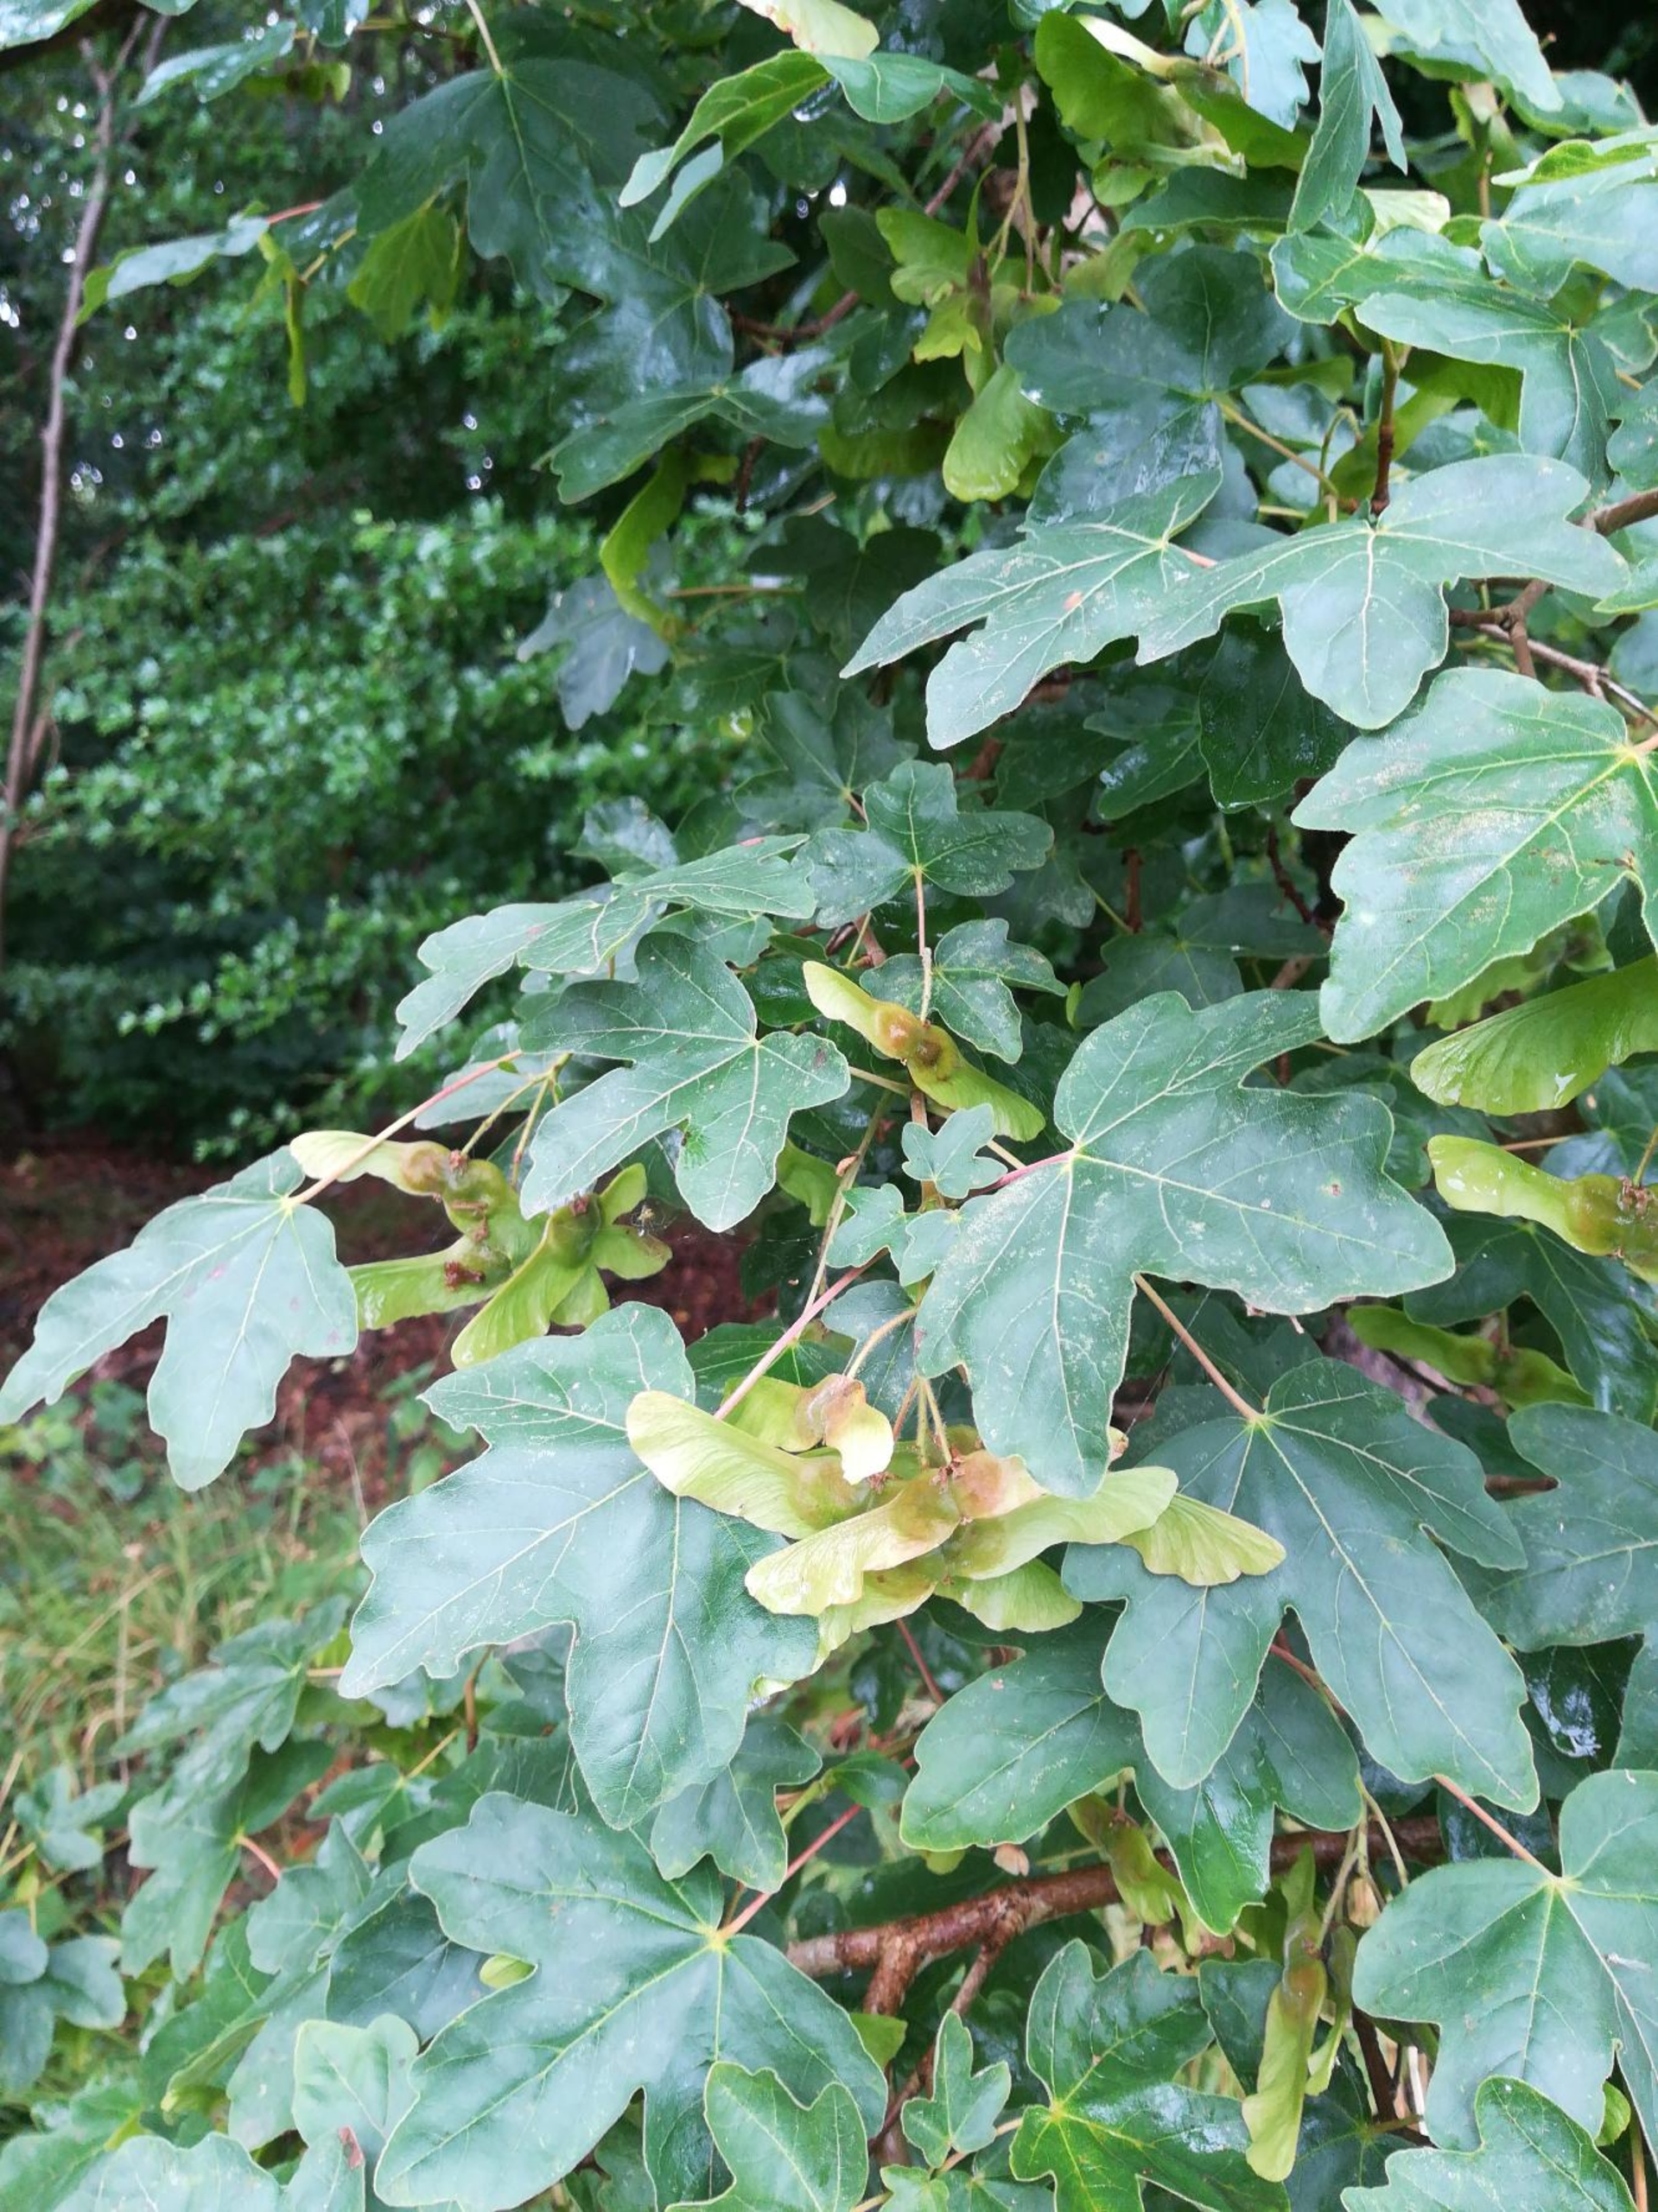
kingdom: Plantae
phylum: Tracheophyta
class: Magnoliopsida
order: Sapindales
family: Sapindaceae
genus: Acer
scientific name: Acer campestre
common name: Navr
